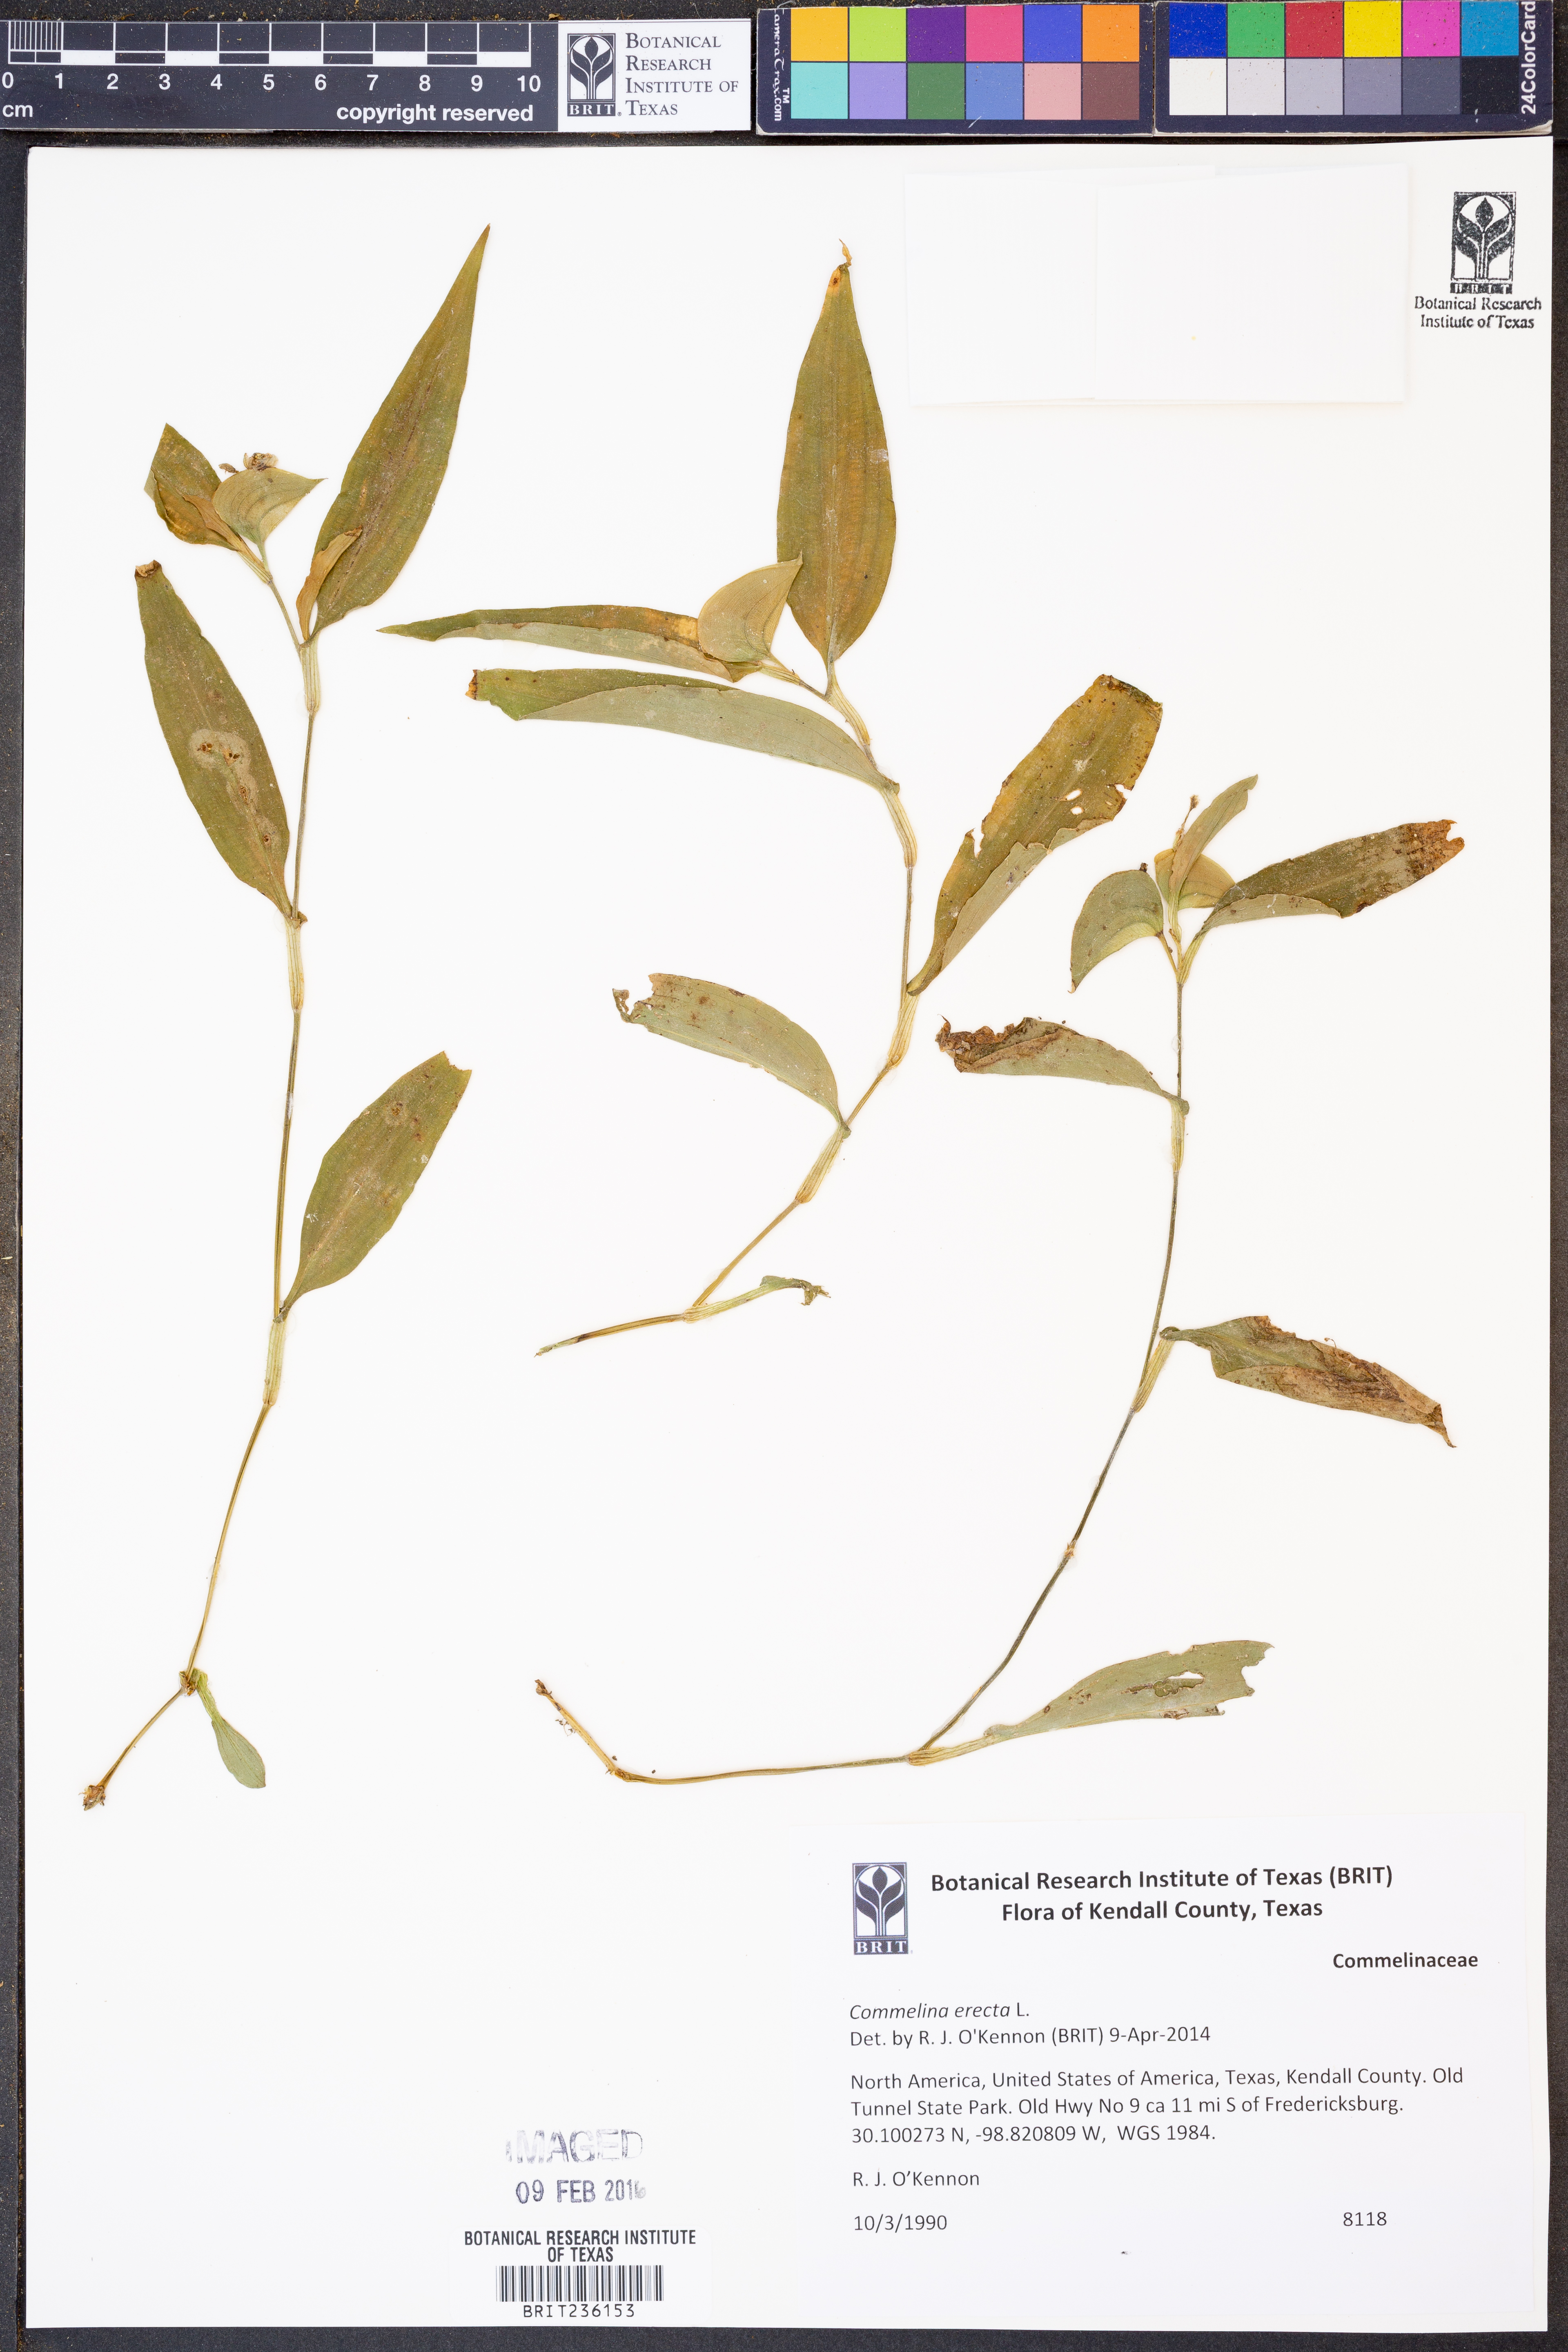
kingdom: Plantae
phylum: Tracheophyta
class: Liliopsida
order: Commelinales
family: Commelinaceae
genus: Commelina
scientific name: Commelina erecta
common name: Blousel blommetjie
